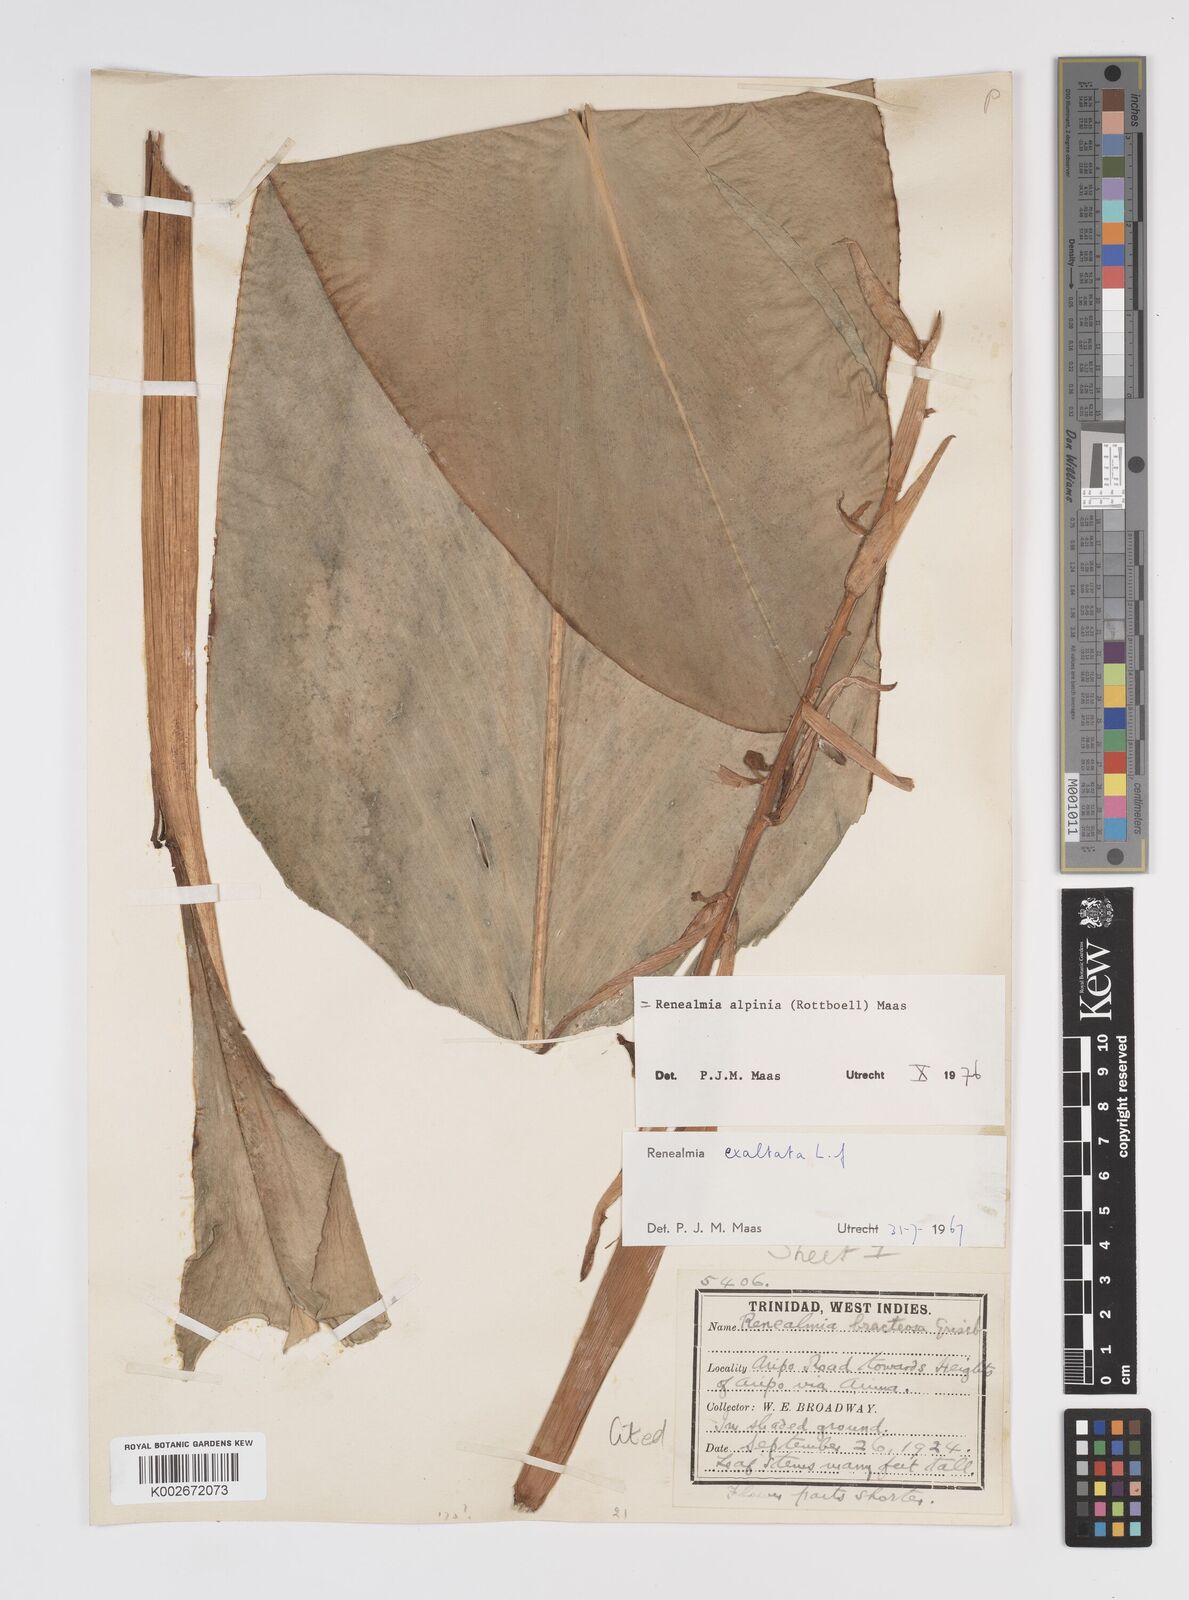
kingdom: Plantae
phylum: Tracheophyta
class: Liliopsida
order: Zingiberales
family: Zingiberaceae
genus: Renealmia
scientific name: Renealmia alpinia
